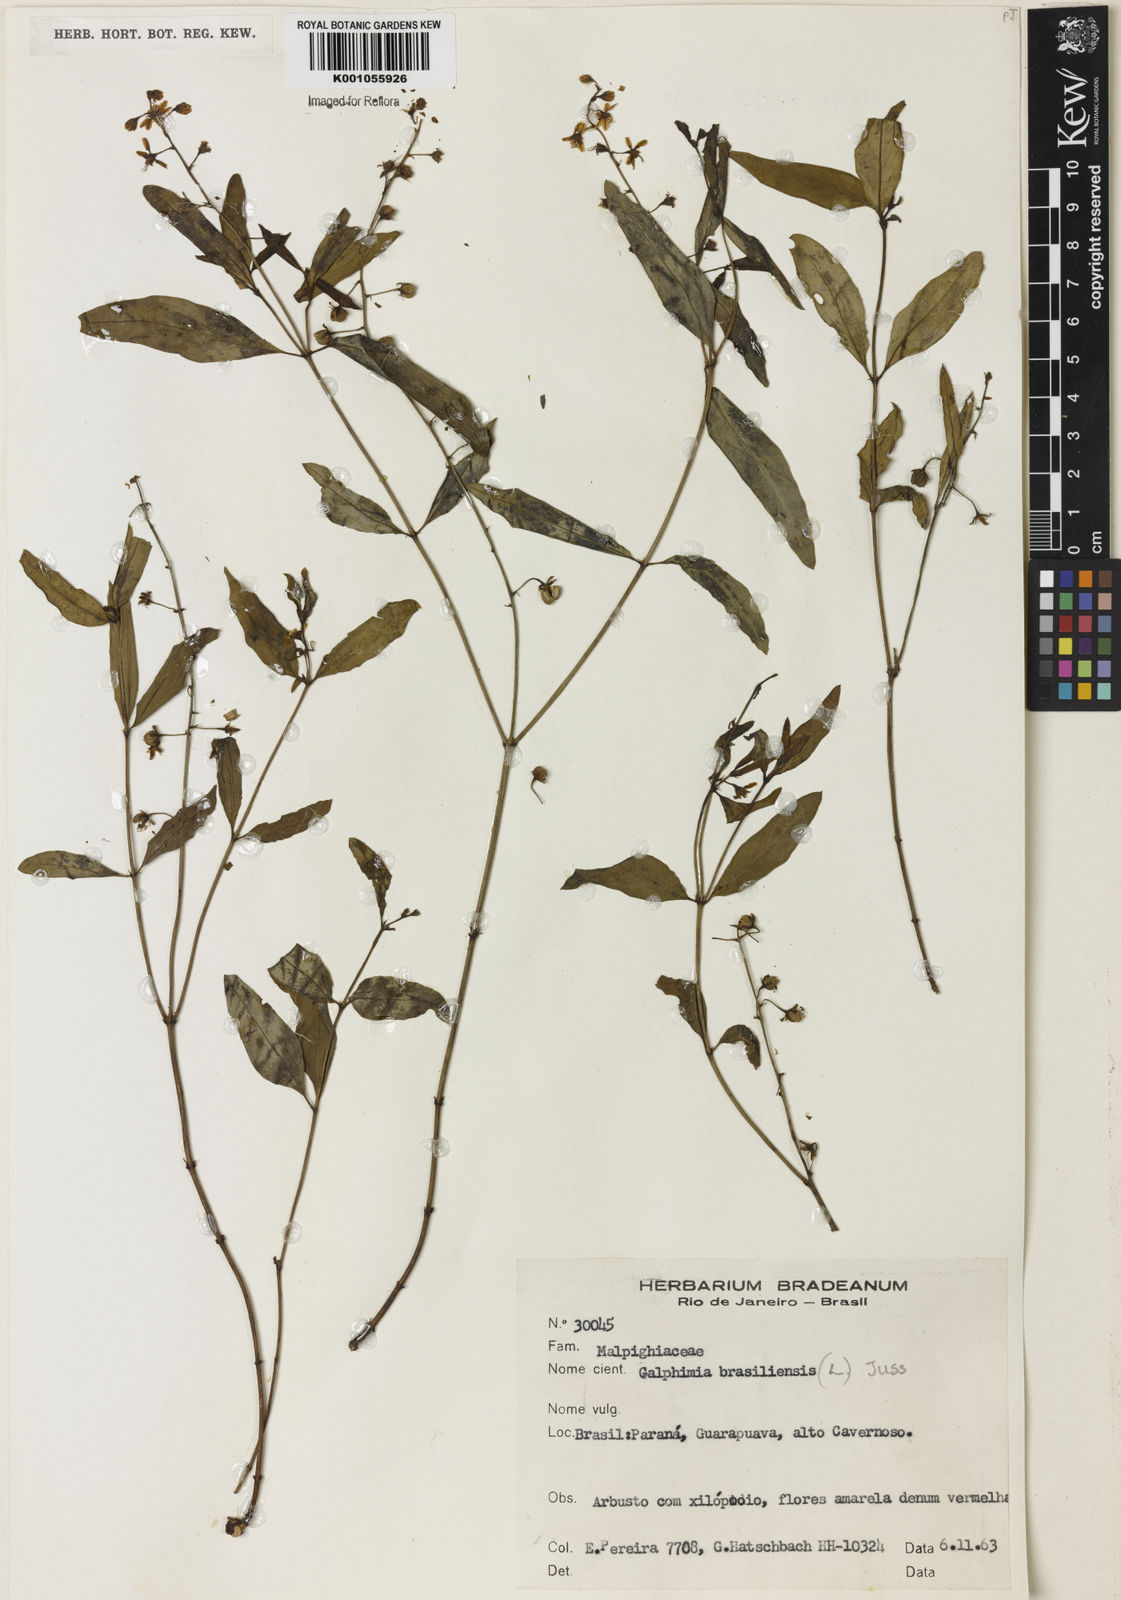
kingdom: Plantae
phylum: Tracheophyta
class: Magnoliopsida
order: Malpighiales
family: Malpighiaceae
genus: Galphimia
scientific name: Galphimia brasiliensis
